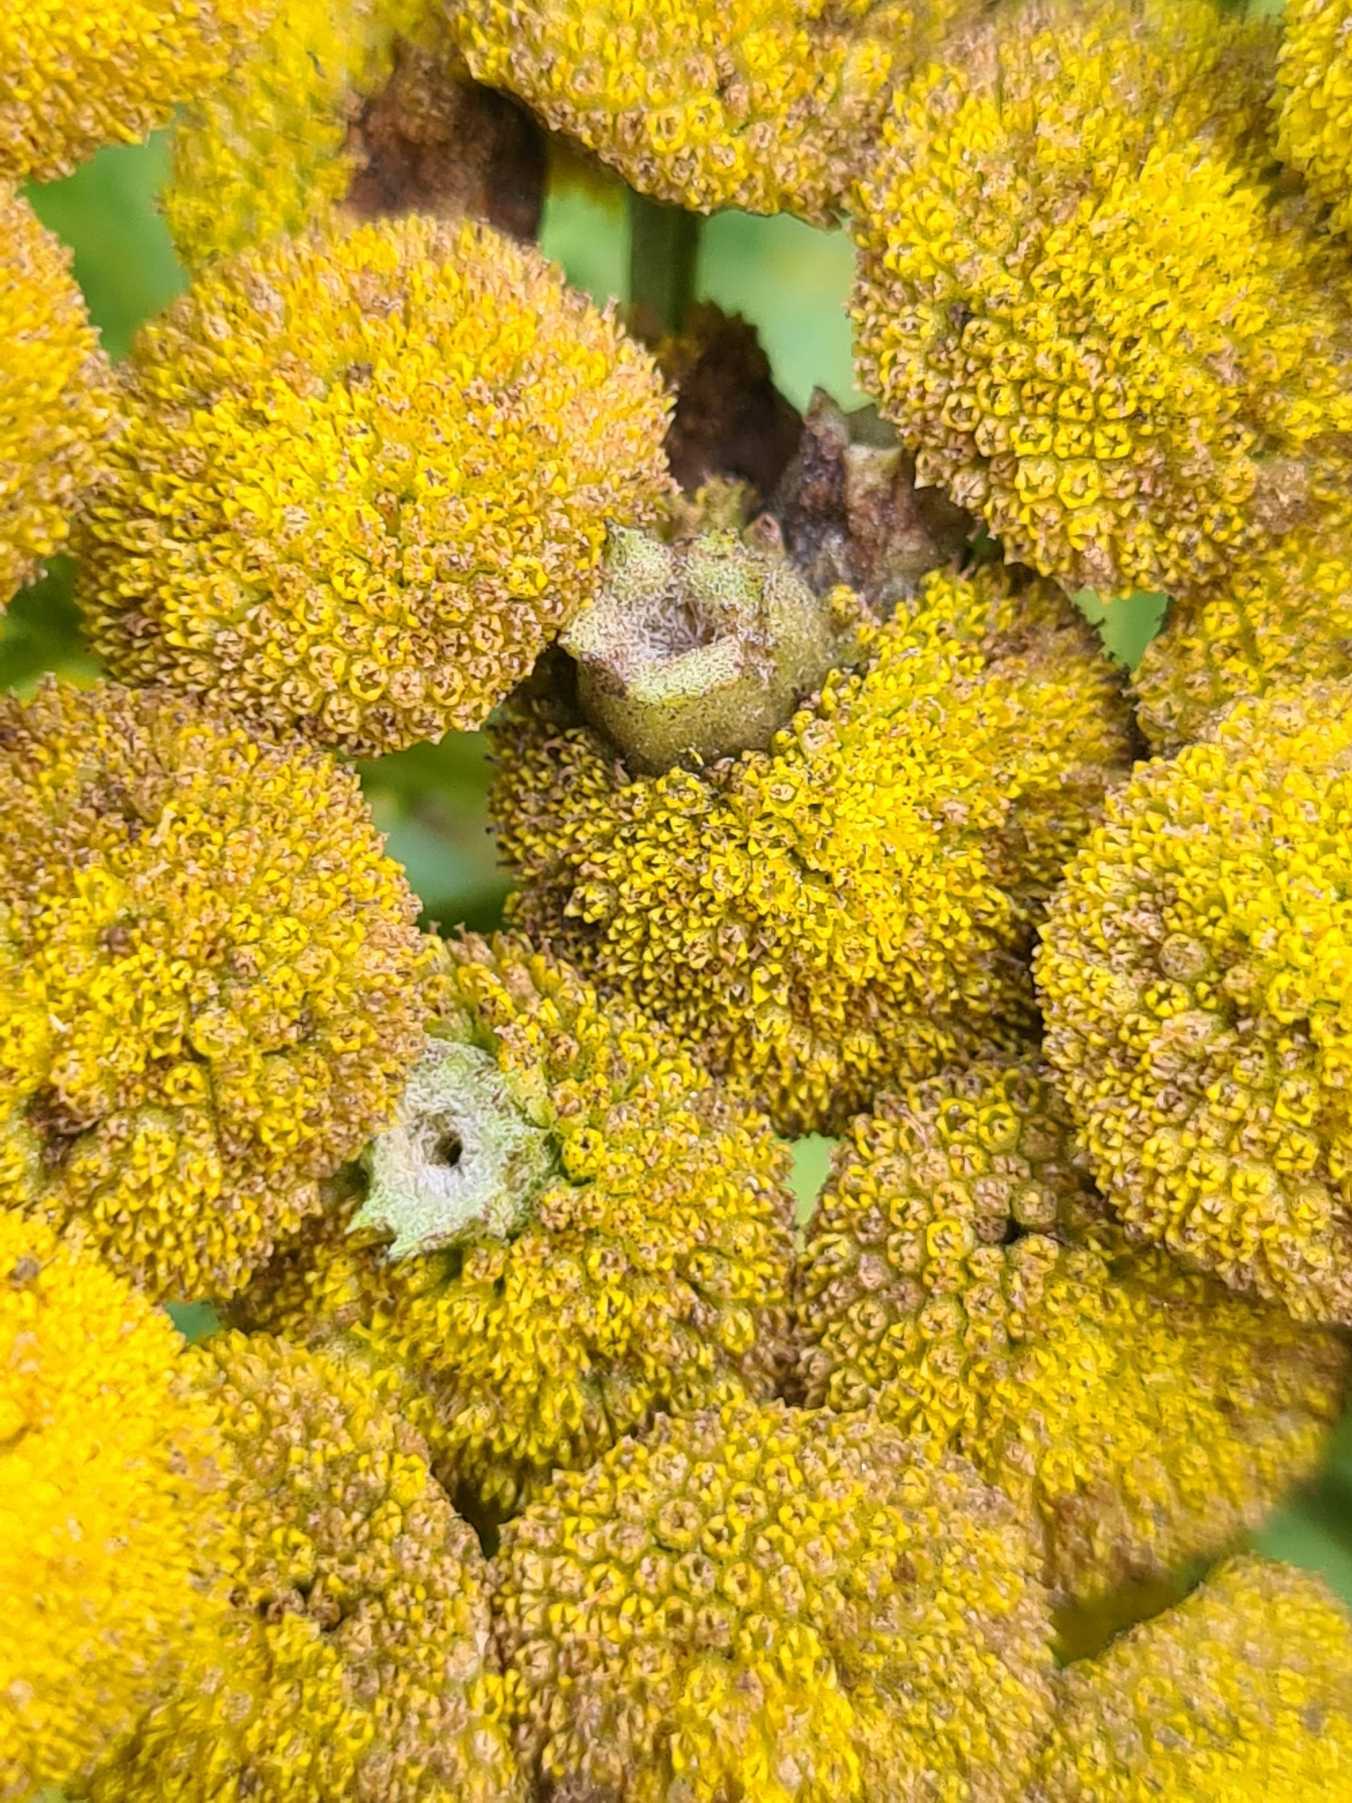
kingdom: Animalia
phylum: Arthropoda
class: Insecta
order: Diptera
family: Cecidomyiidae
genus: Rhopalomyia
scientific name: Rhopalomyia tanaceticolus
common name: Rejnfangalmyg
